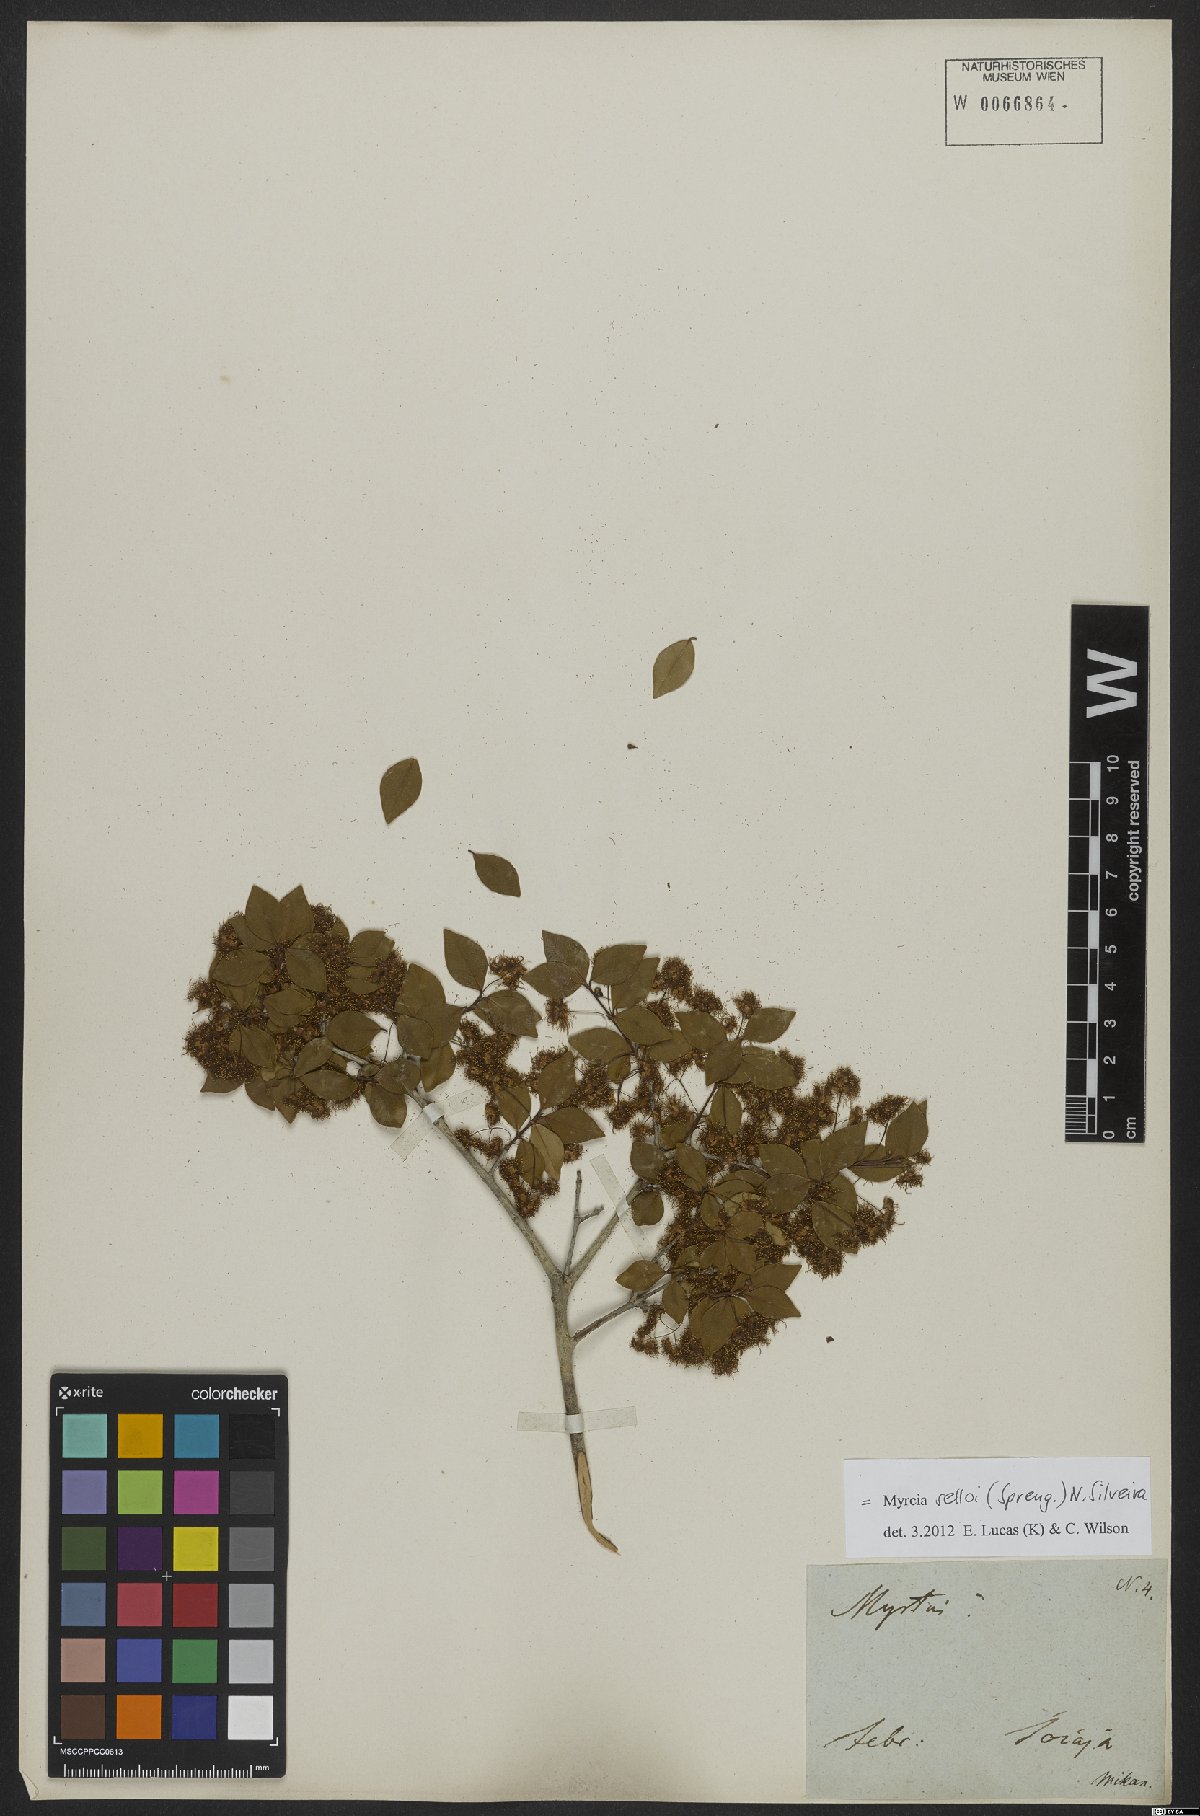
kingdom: Plantae
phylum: Tracheophyta
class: Magnoliopsida
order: Myrtales
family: Myrtaceae
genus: Myrcia
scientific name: Myrcia selloi
